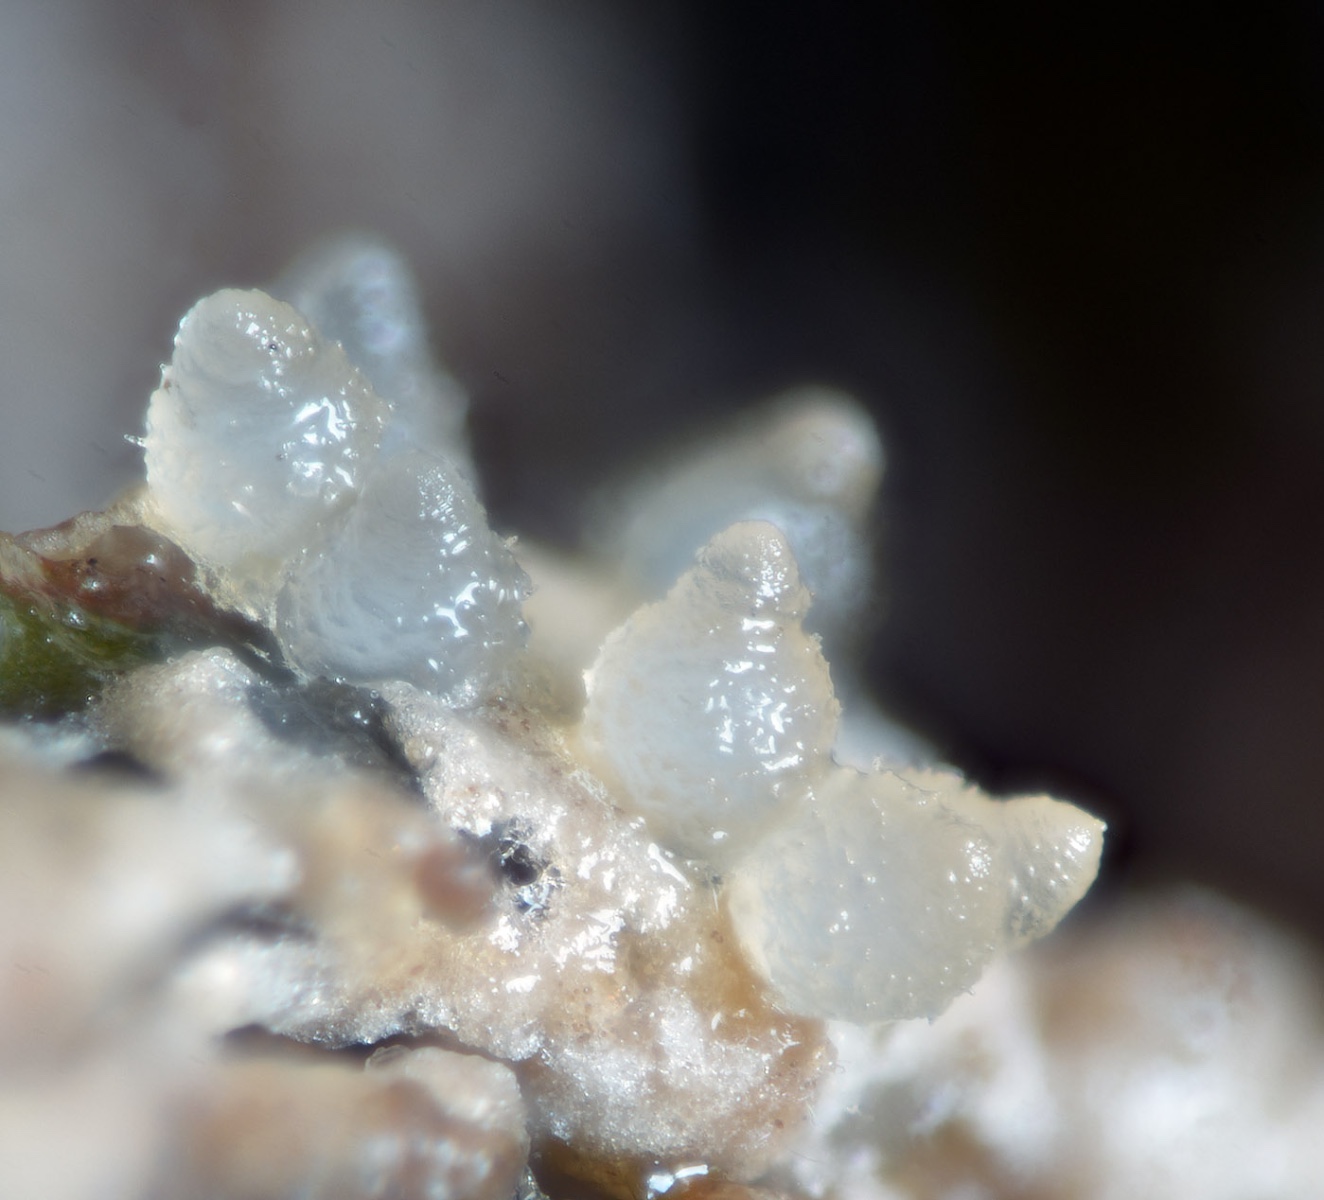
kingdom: Fungi
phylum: Ascomycota
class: Sordariomycetes
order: Hypocreales
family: Hypocreaceae
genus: Hypomyces
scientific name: Hypomyces
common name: snylteskorpe
